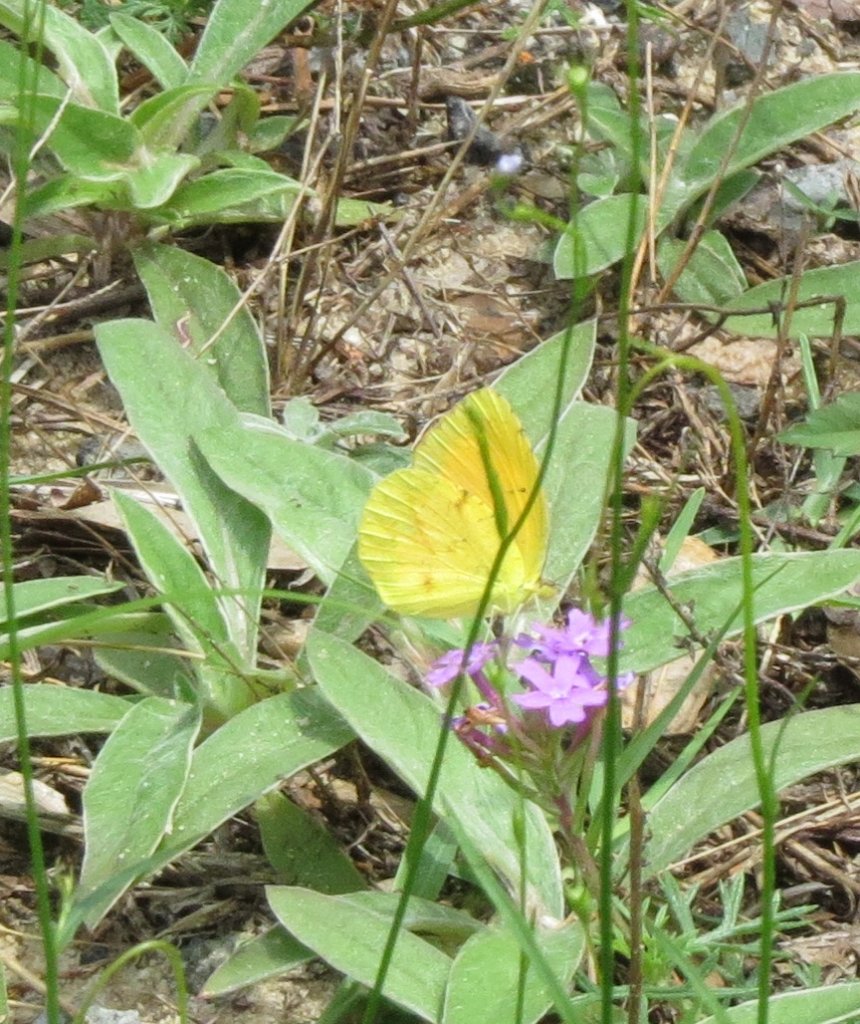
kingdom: Animalia
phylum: Arthropoda
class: Insecta
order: Lepidoptera
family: Pieridae
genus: Abaeis
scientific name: Abaeis nicippe
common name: Sleepy Orange
